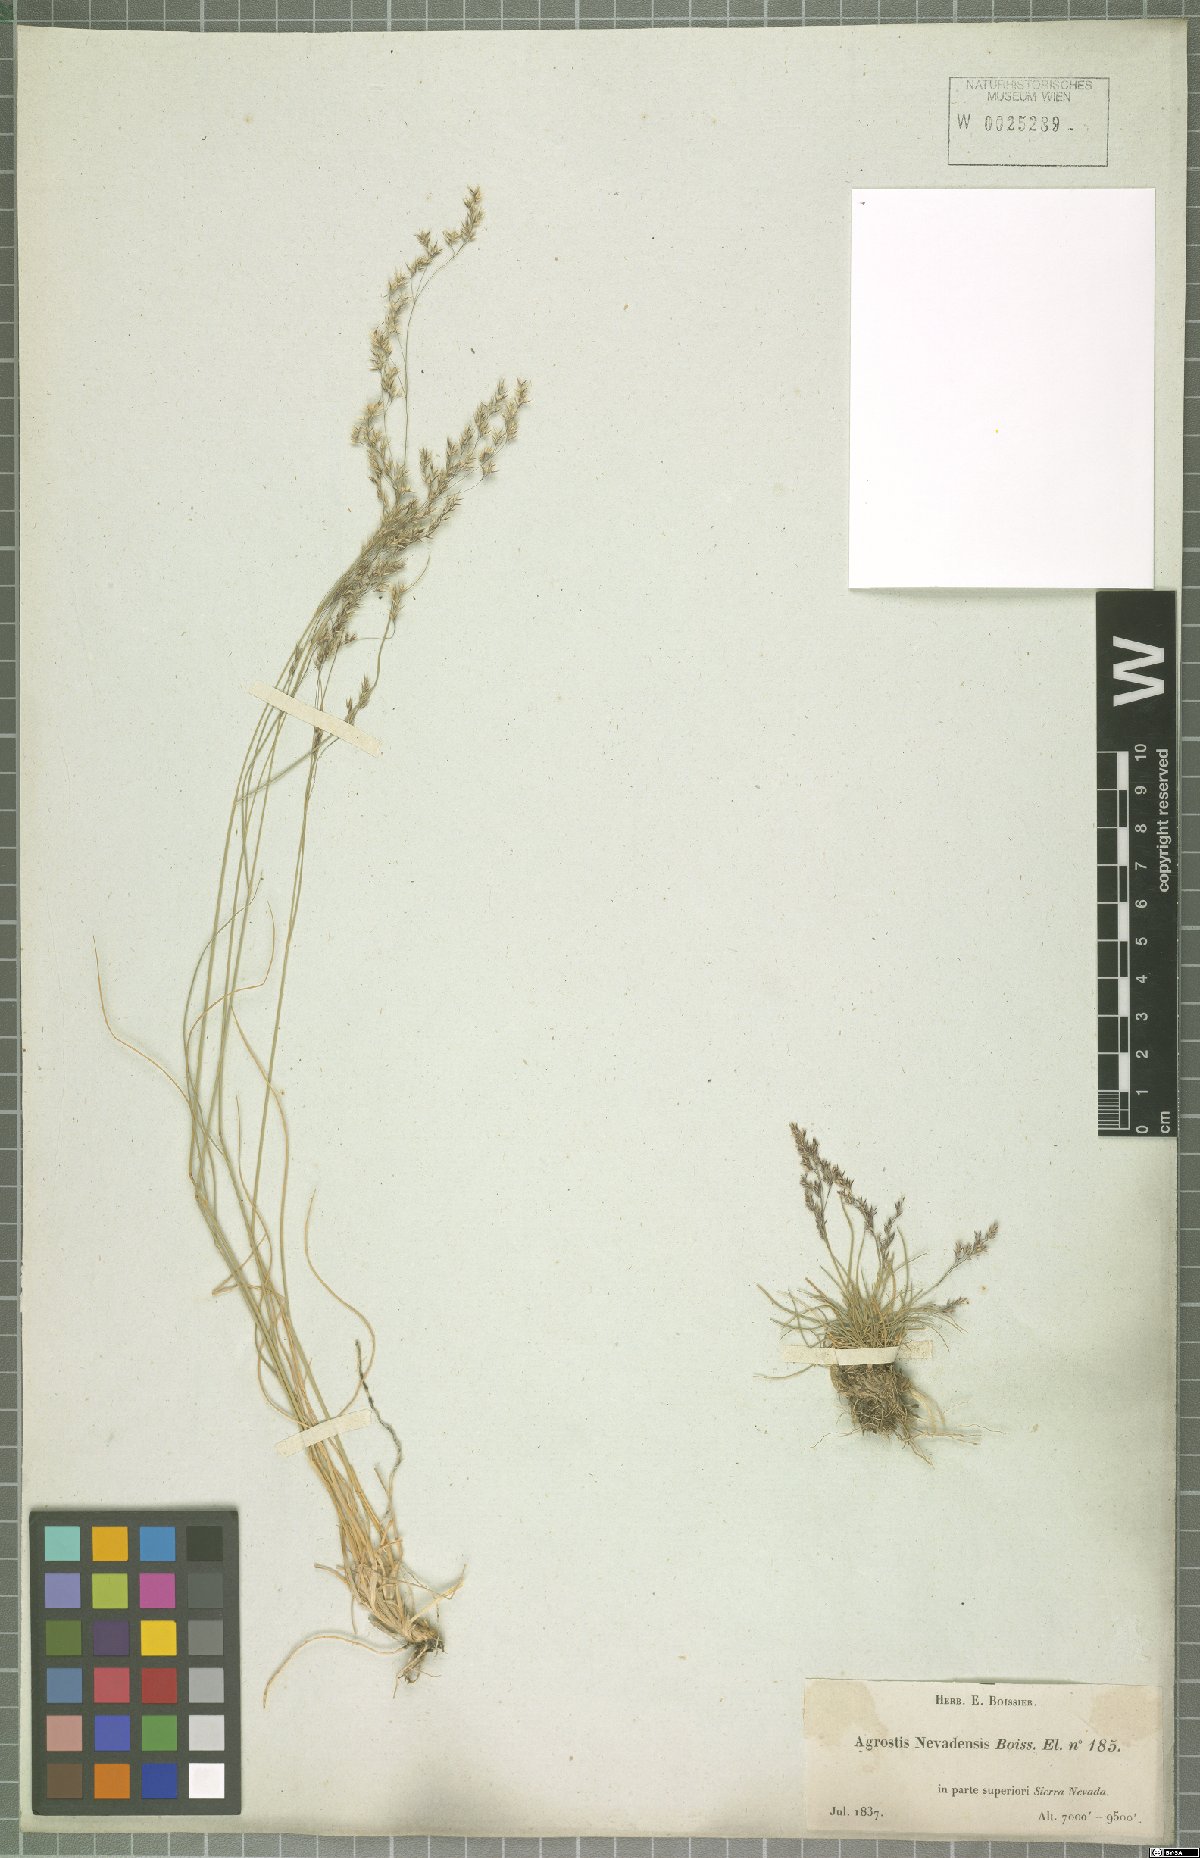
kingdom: Plantae
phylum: Tracheophyta
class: Liliopsida
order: Poales
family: Poaceae
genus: Agrostis
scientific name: Agrostis nevadensis
